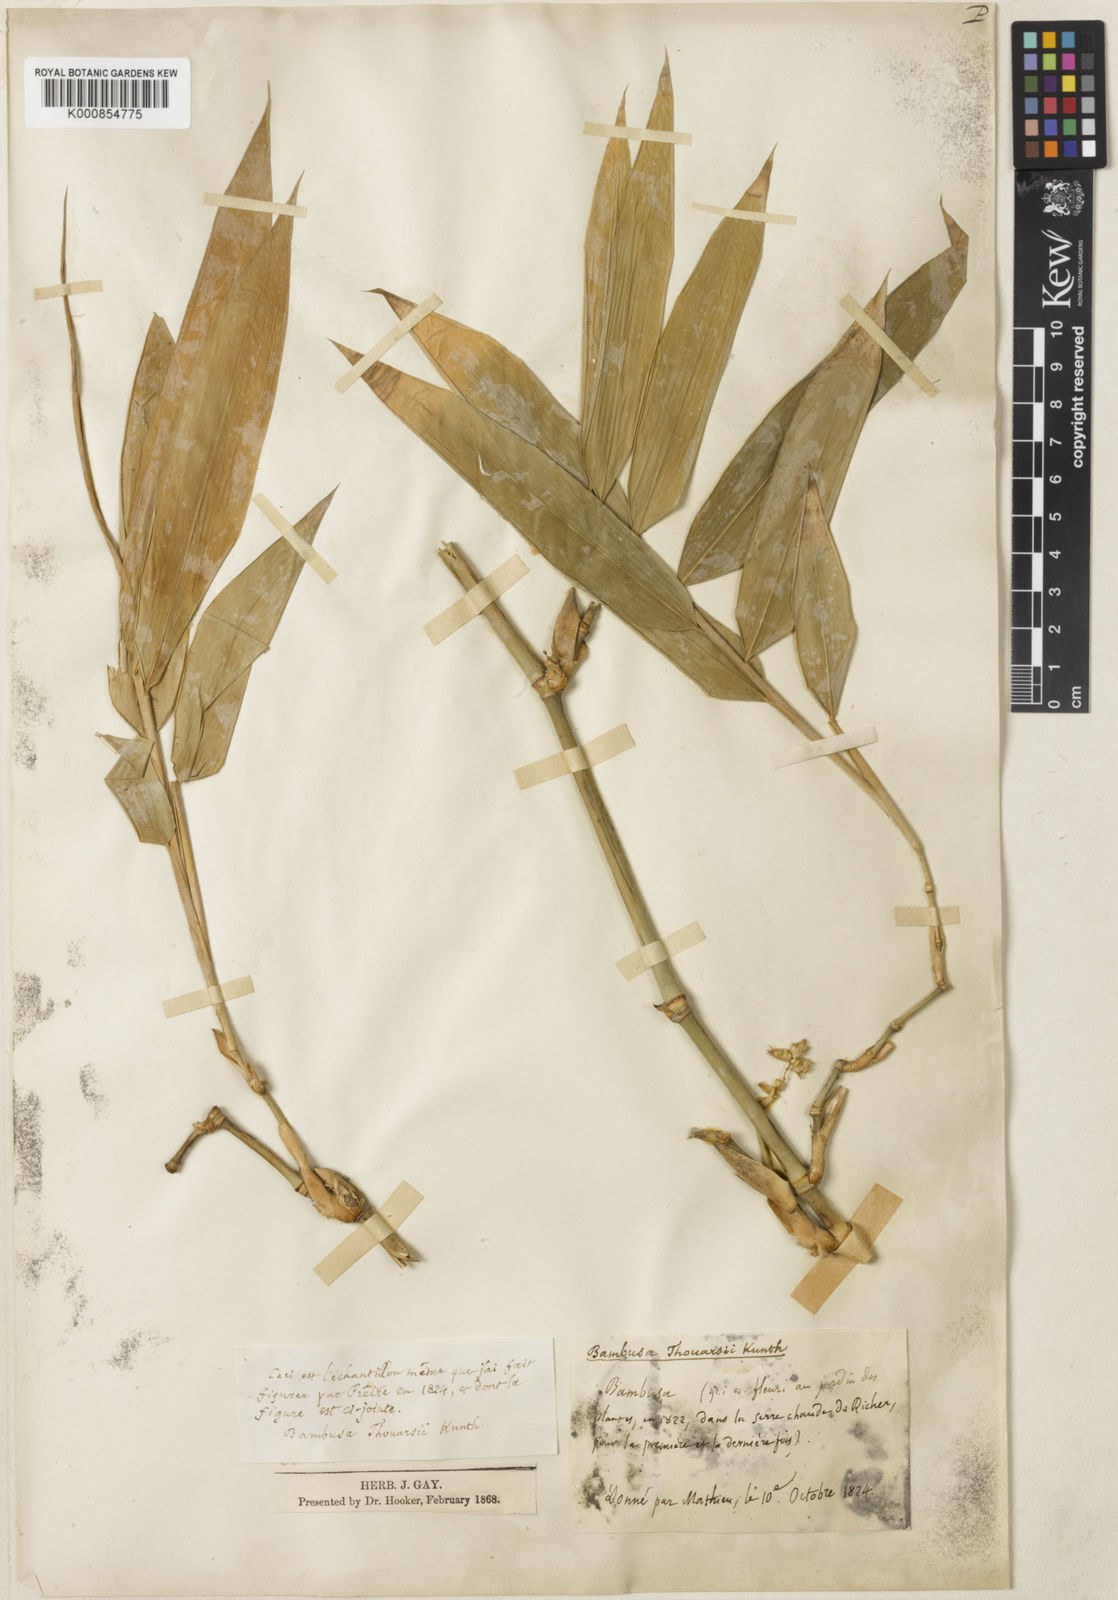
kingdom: Plantae
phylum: Tracheophyta
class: Liliopsida
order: Poales
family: Poaceae
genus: Bambusa
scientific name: Bambusa vulgaris
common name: Common bamboo
